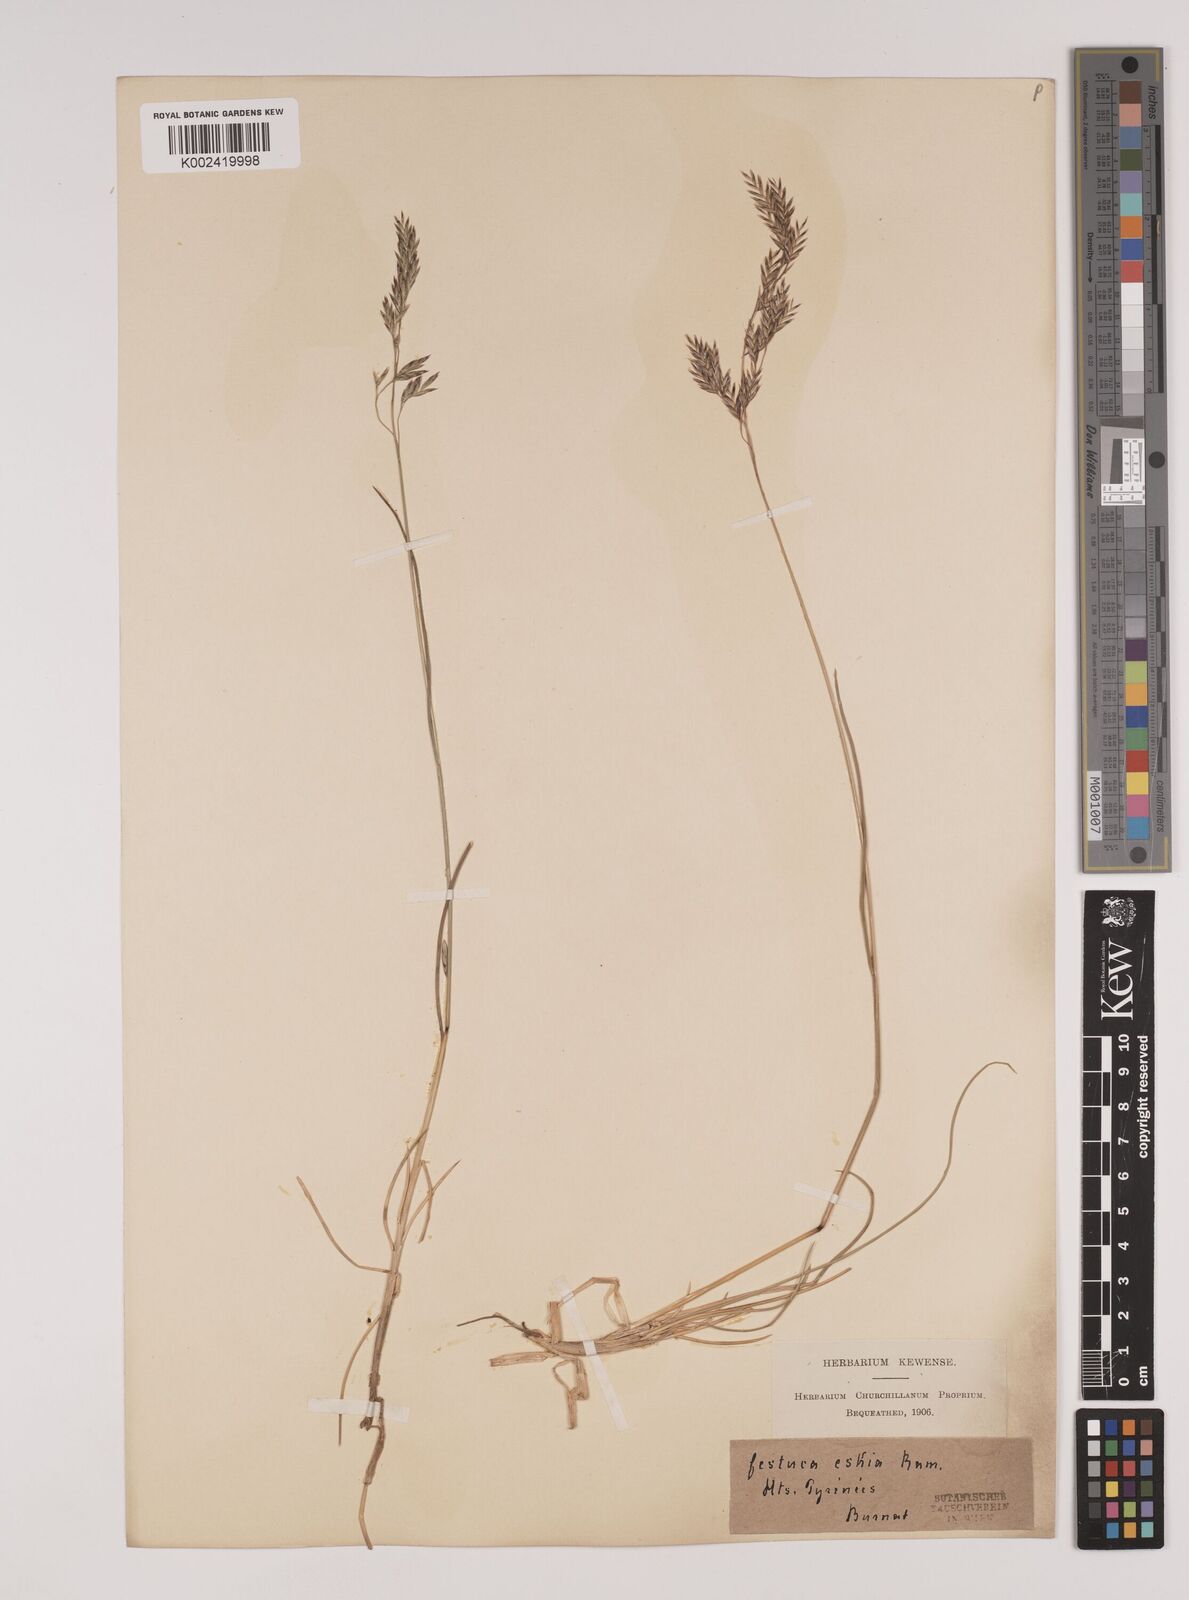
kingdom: Plantae
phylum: Tracheophyta
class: Liliopsida
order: Poales
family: Poaceae
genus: Festuca
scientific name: Festuca eskia
